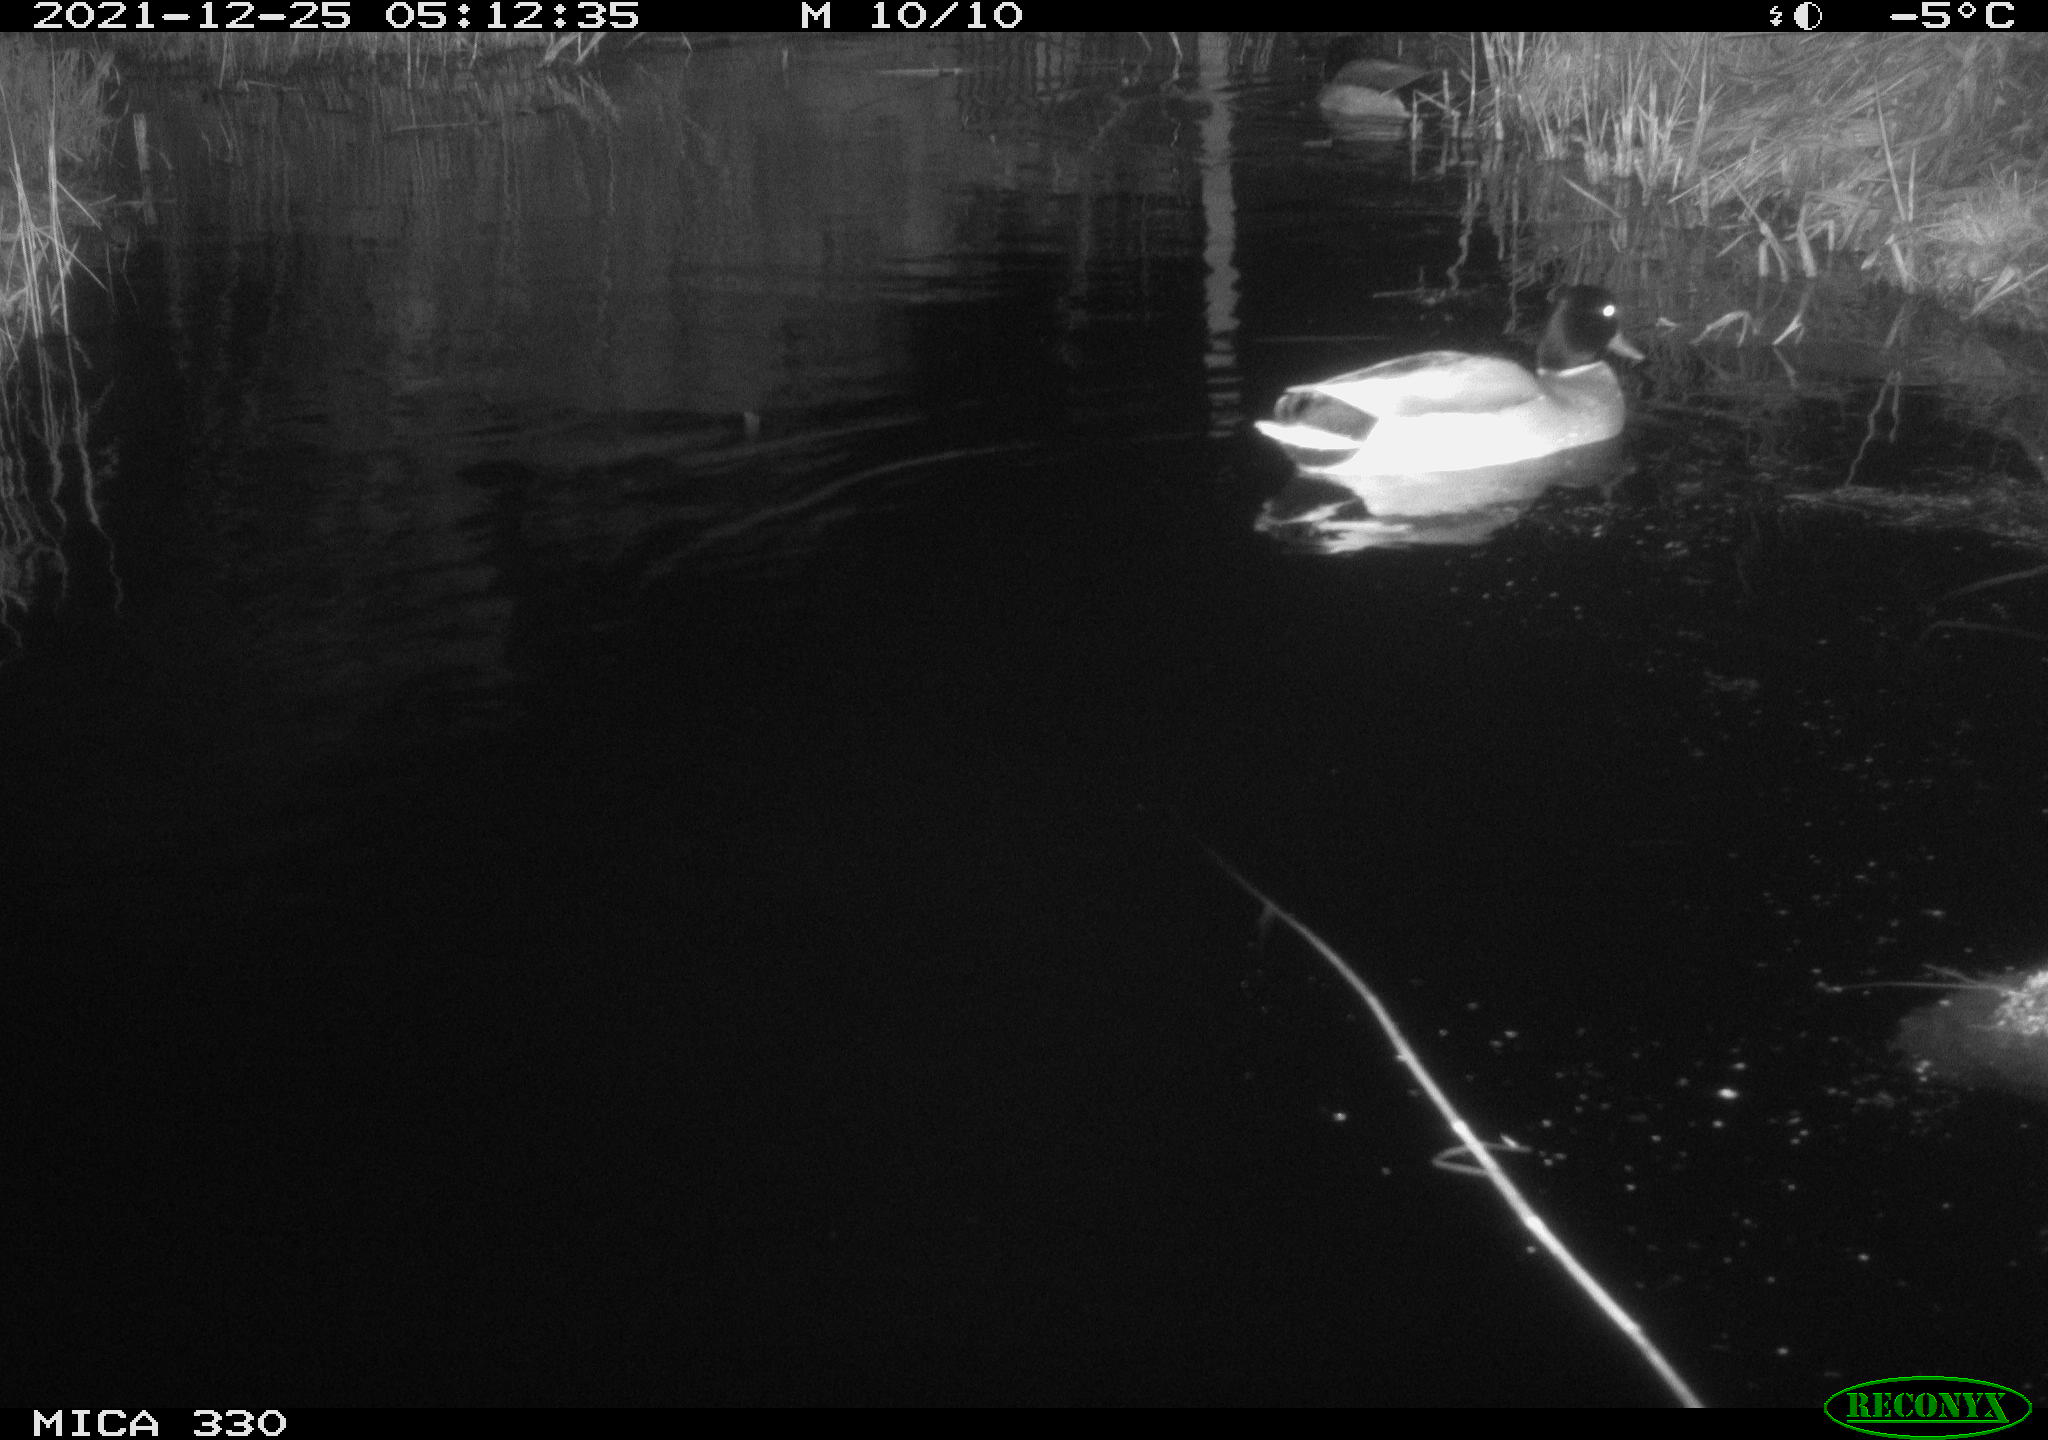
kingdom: Animalia
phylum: Chordata
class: Aves
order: Anseriformes
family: Anatidae
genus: Anas
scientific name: Anas platyrhynchos
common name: Mallard
